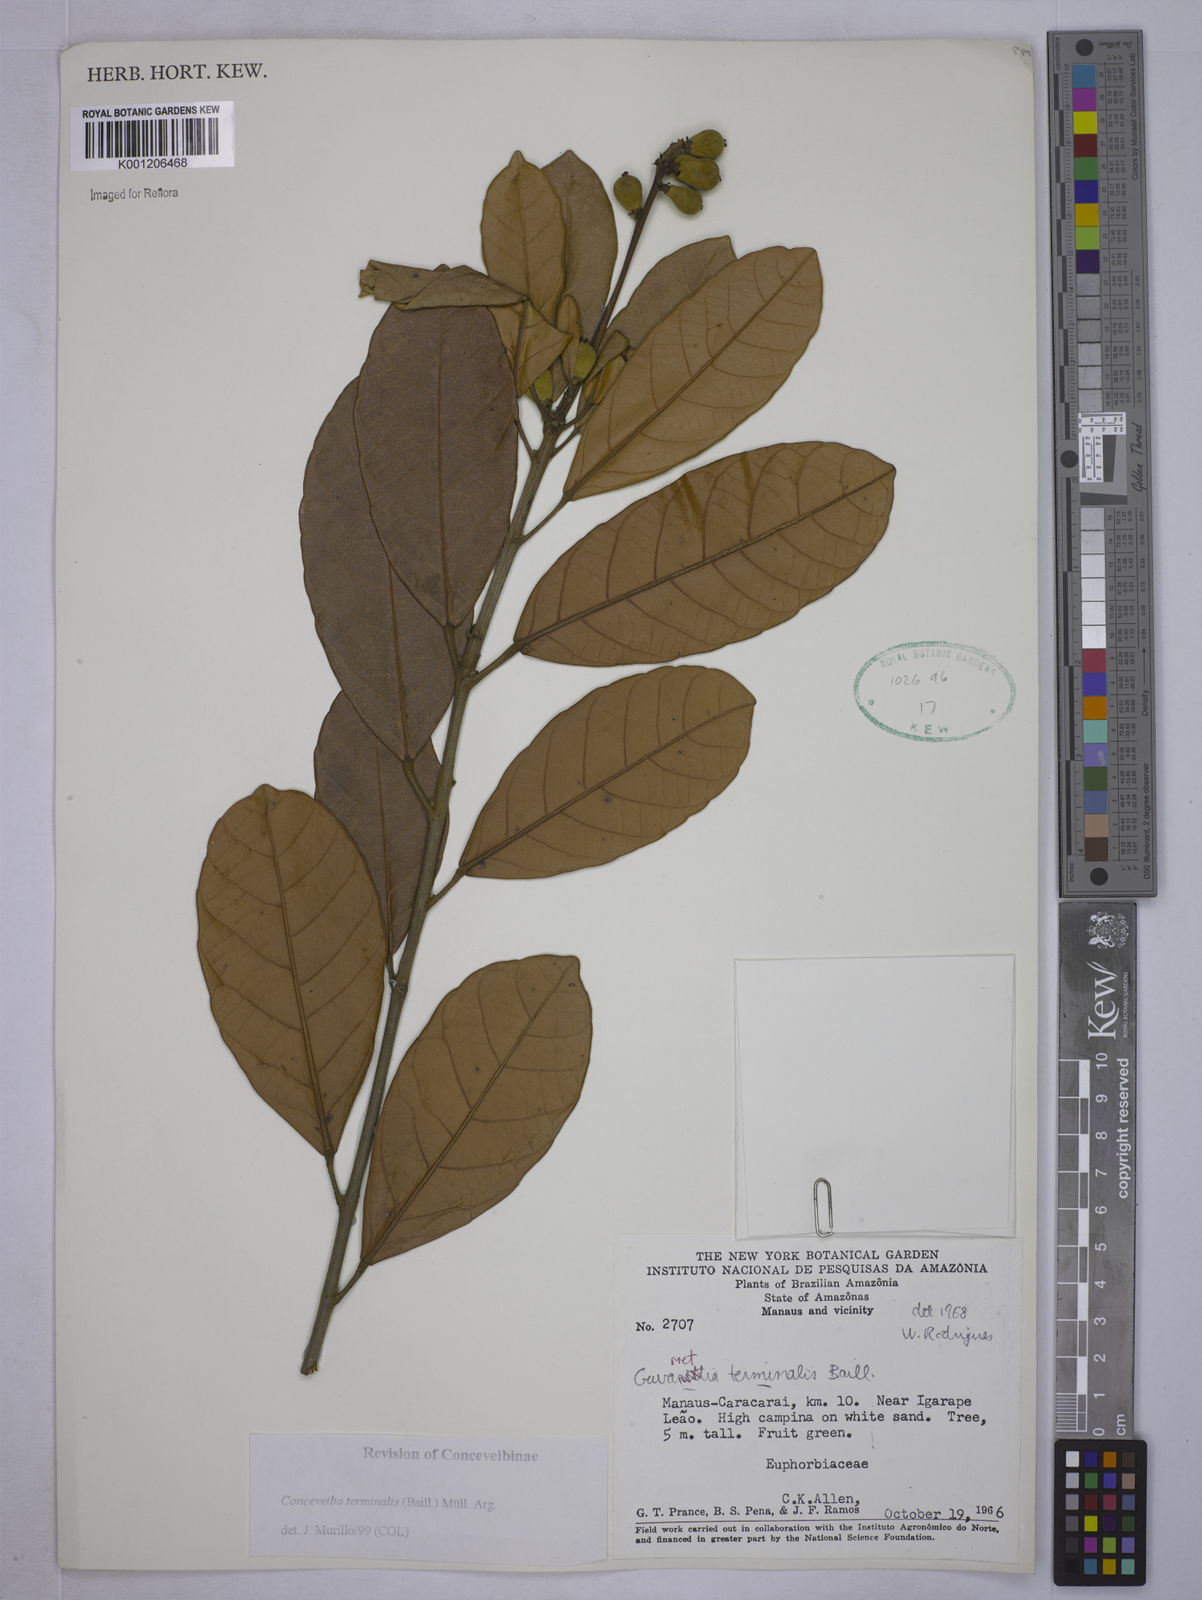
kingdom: Plantae
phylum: Tracheophyta
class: Magnoliopsida
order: Malpighiales
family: Euphorbiaceae
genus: Conceveiba
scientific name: Conceveiba
